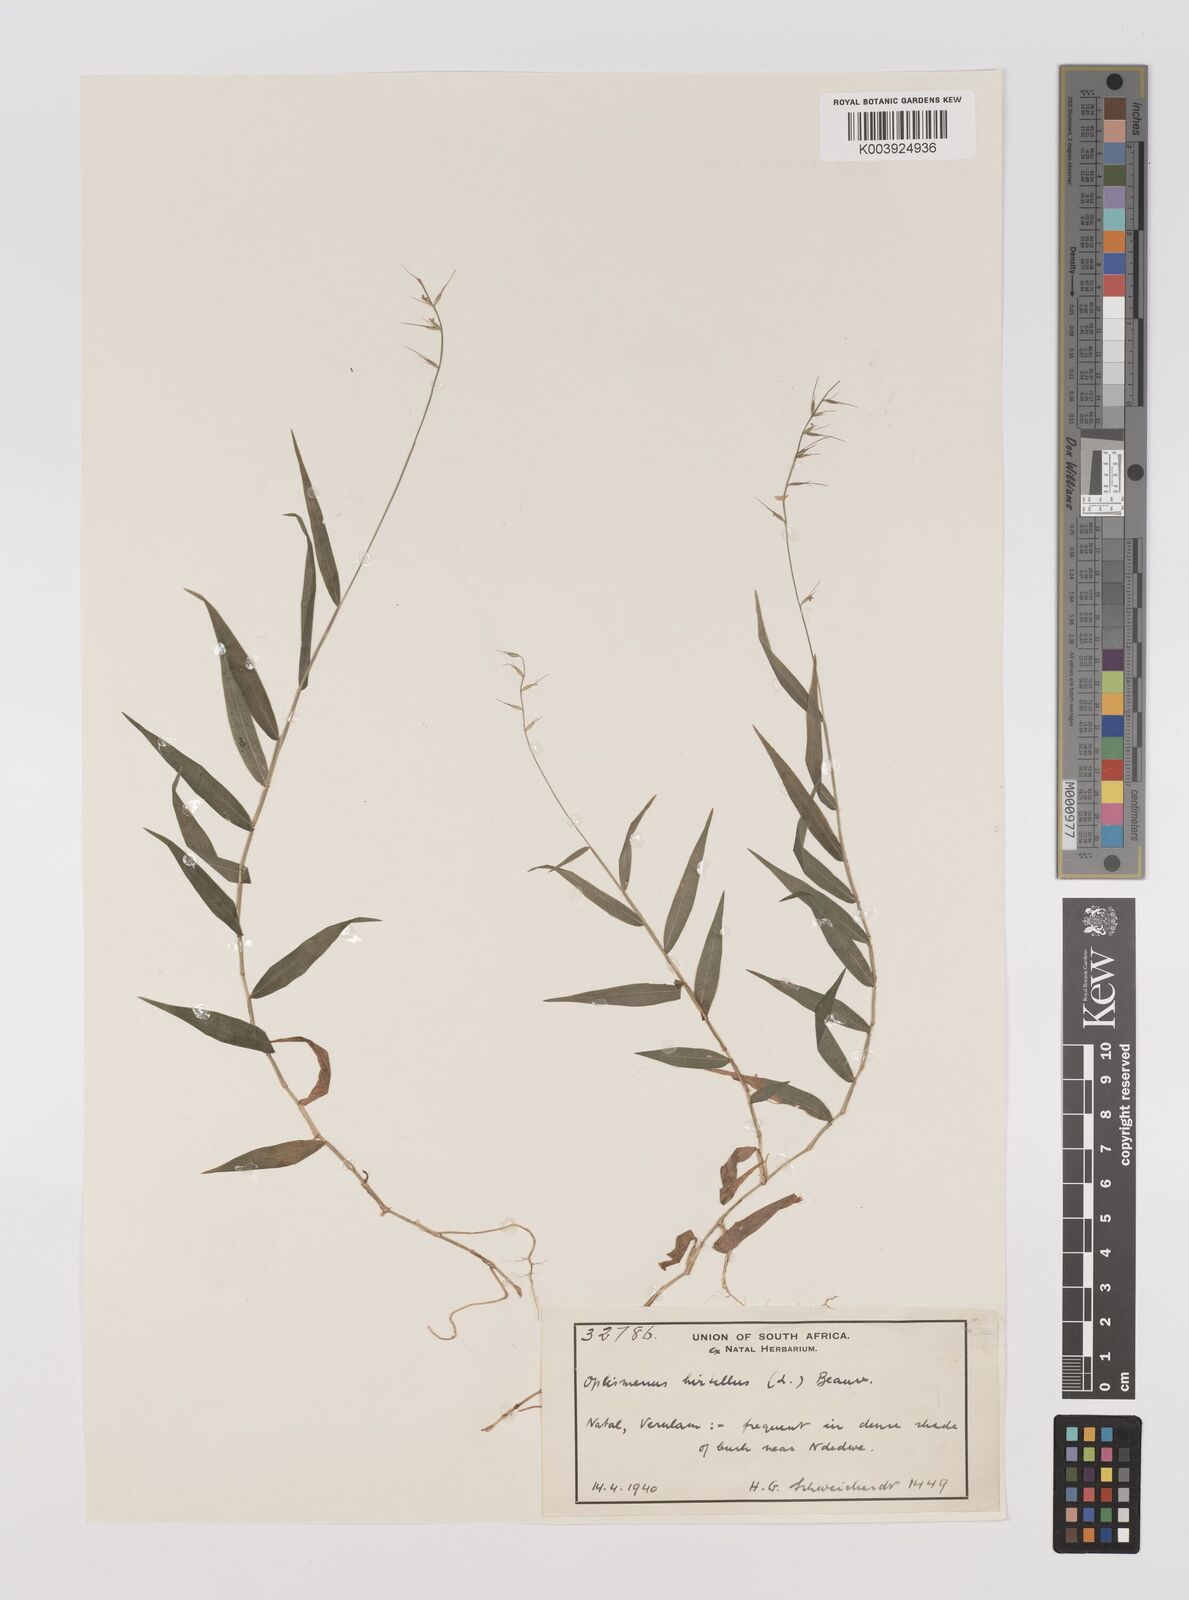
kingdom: Plantae
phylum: Tracheophyta
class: Liliopsida
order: Poales
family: Poaceae
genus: Oplismenus
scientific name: Oplismenus undulatifolius
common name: Wavyleaf basketgrass
